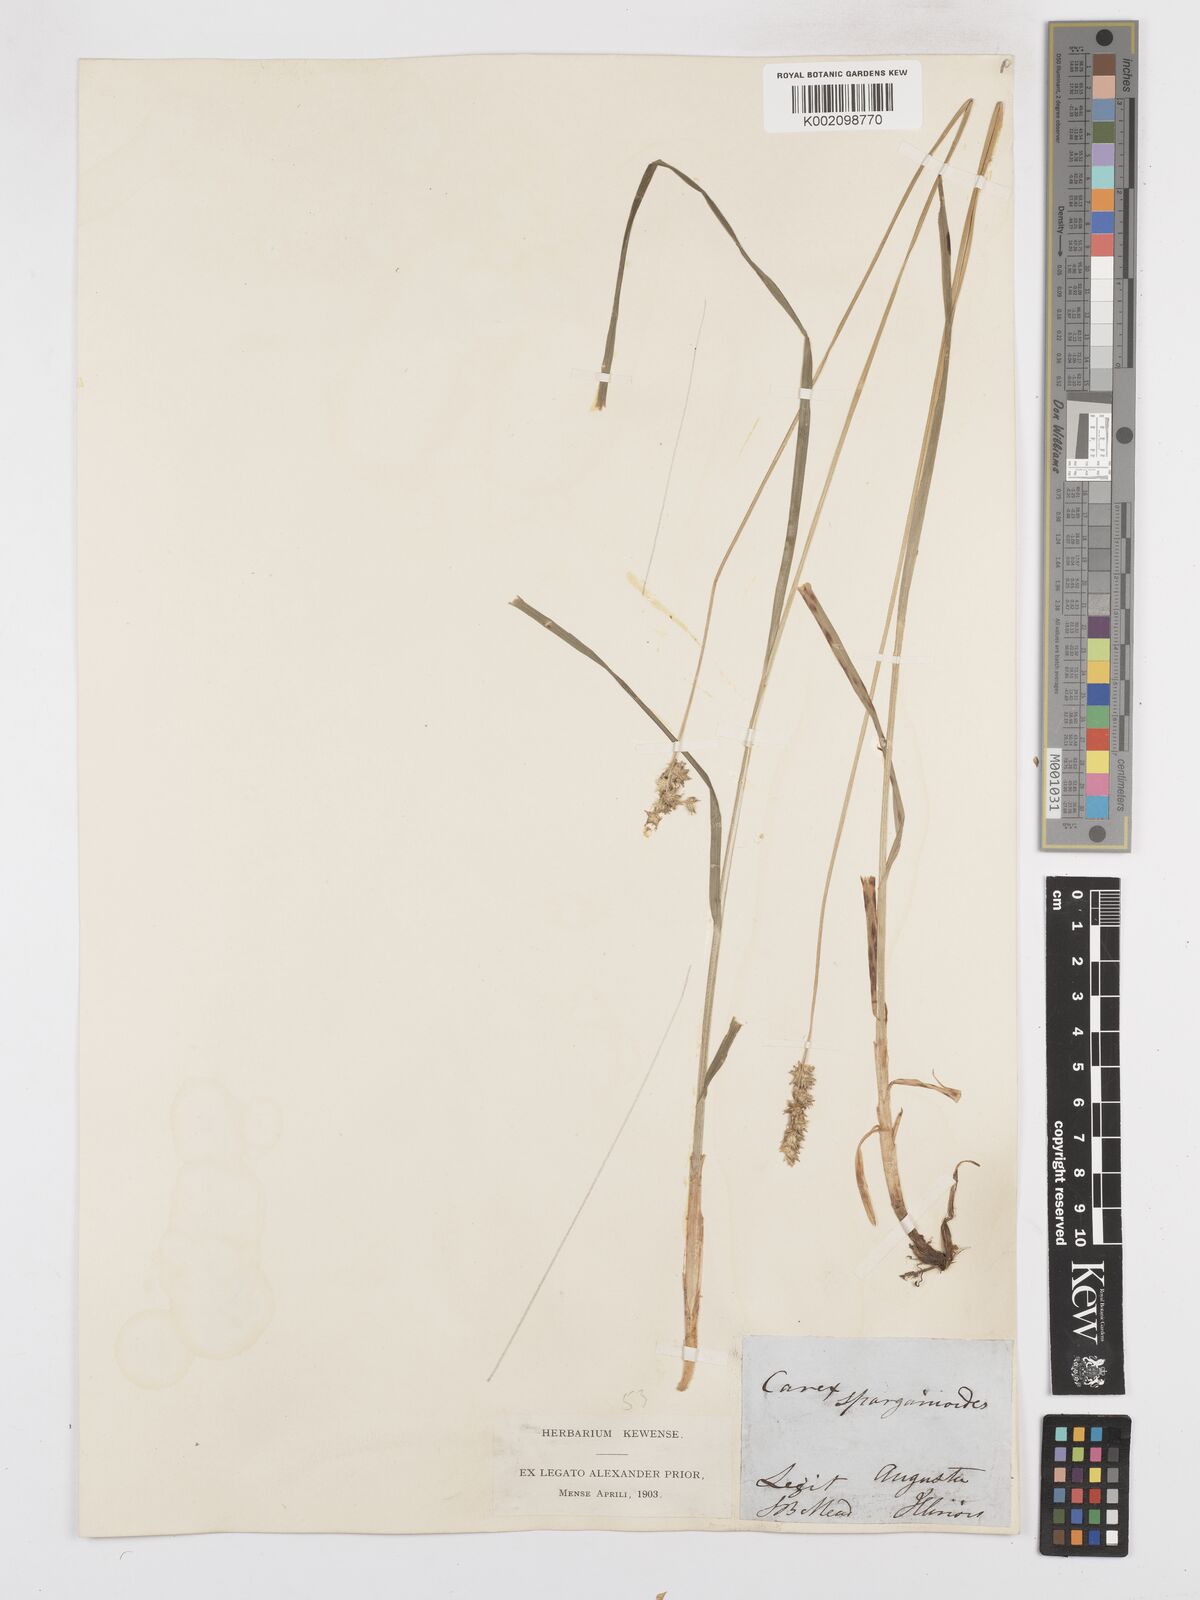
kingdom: Plantae
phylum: Tracheophyta
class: Liliopsida
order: Poales
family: Cyperaceae
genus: Carex
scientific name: Carex sparganioides
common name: Burreed sedge
